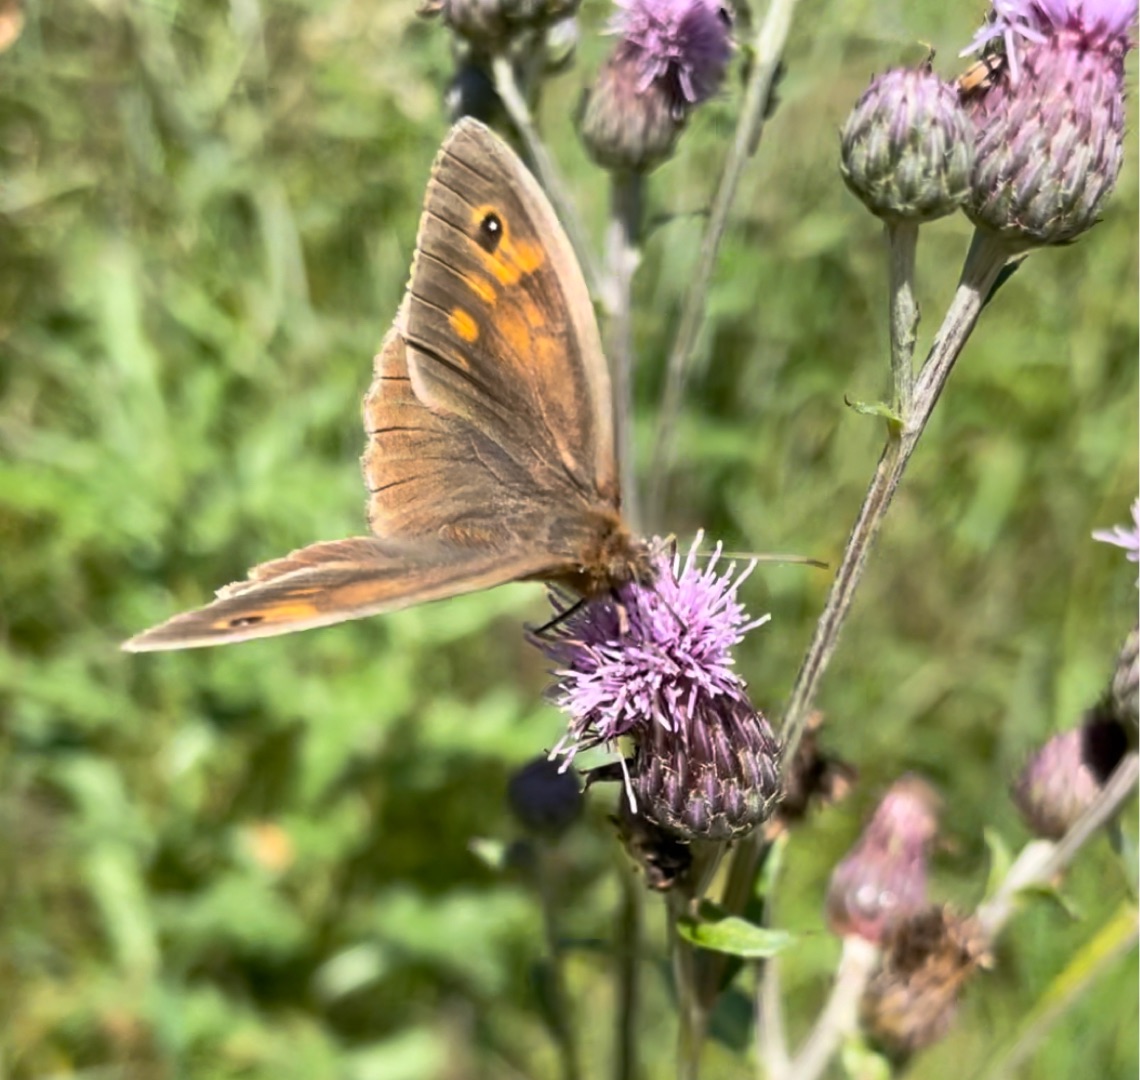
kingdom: Animalia
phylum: Arthropoda
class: Insecta
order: Lepidoptera
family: Nymphalidae
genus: Maniola
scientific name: Maniola jurtina
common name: Græsrandøje
